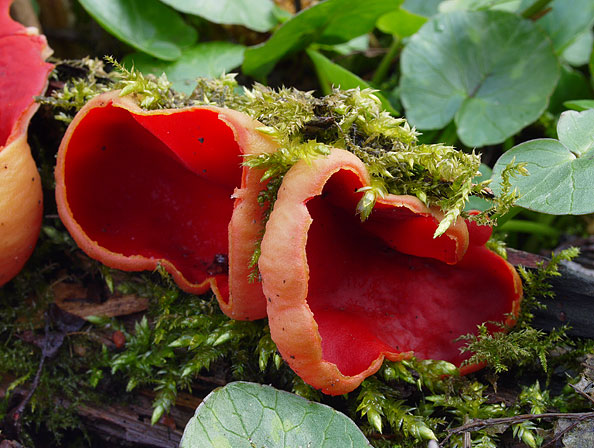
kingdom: Fungi
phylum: Ascomycota
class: Pezizomycetes
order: Pezizales
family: Sarcoscyphaceae
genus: Sarcoscypha
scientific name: Sarcoscypha austriaca
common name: krølhåret pragtbæger
